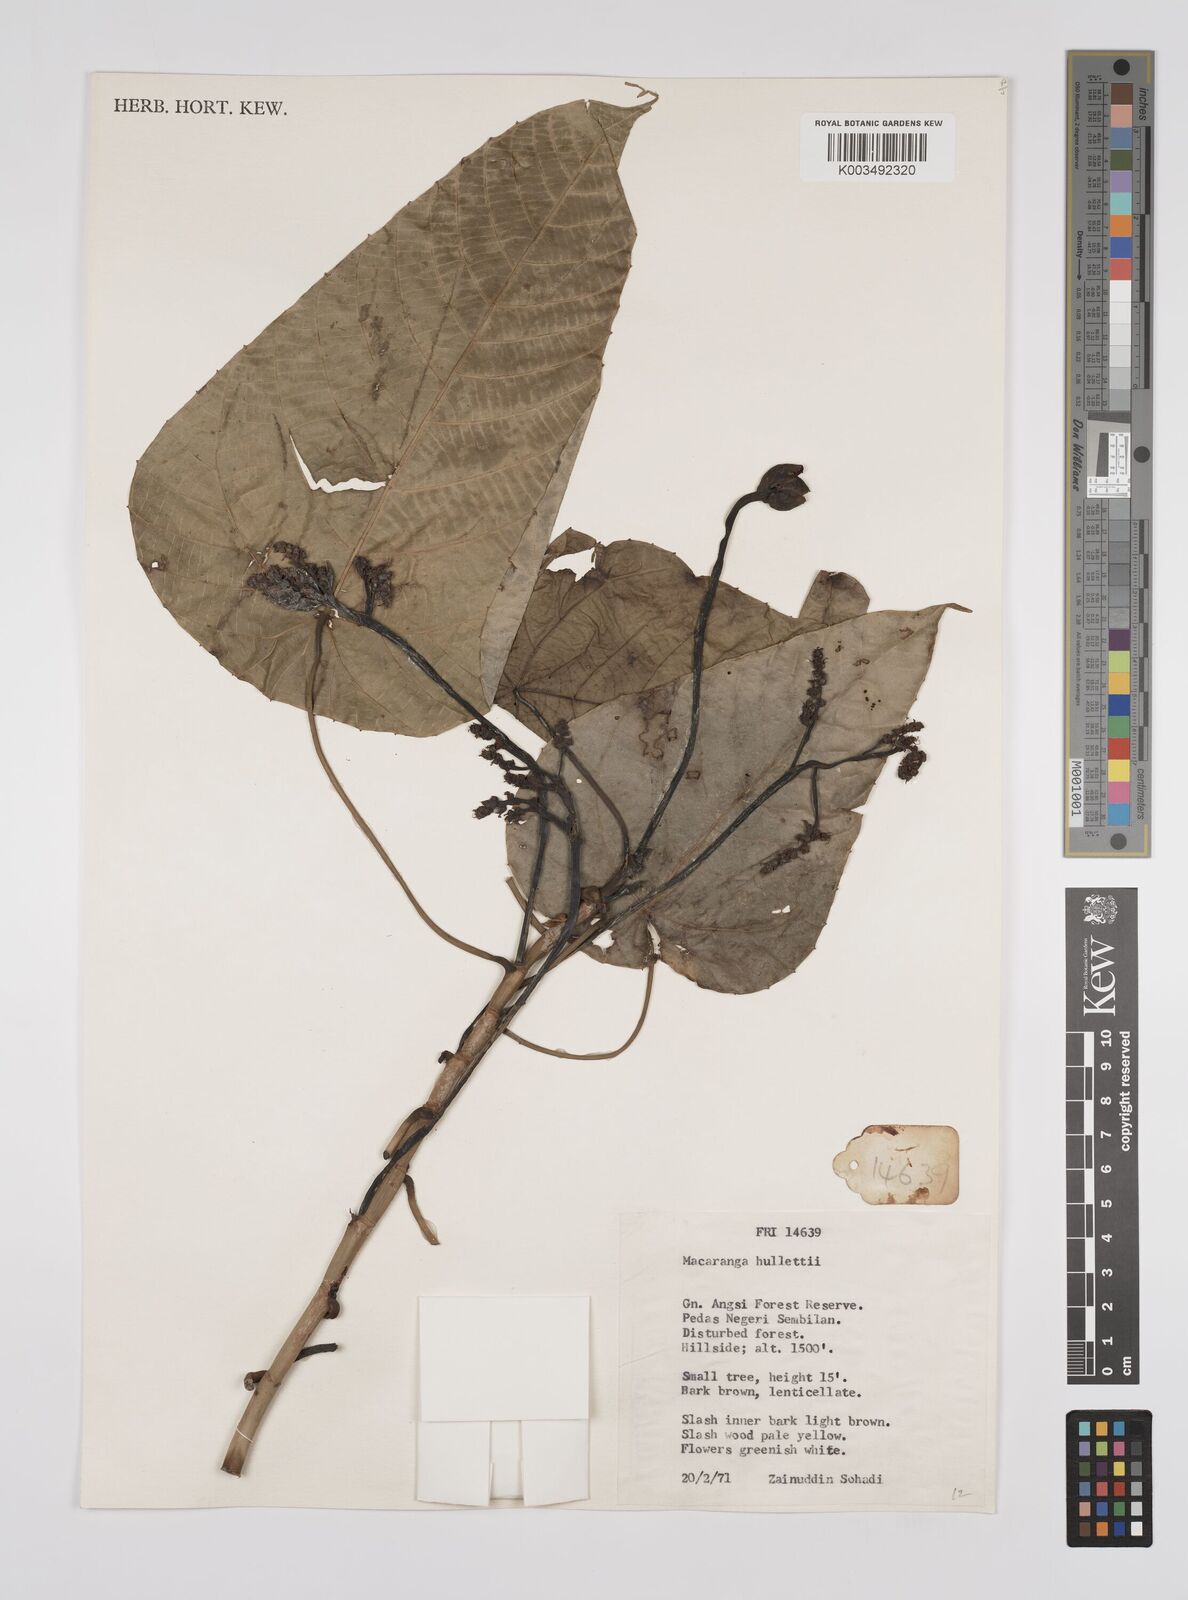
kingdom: Plantae
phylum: Tracheophyta
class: Magnoliopsida
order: Malpighiales
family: Euphorbiaceae
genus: Macaranga
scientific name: Macaranga hullettii
